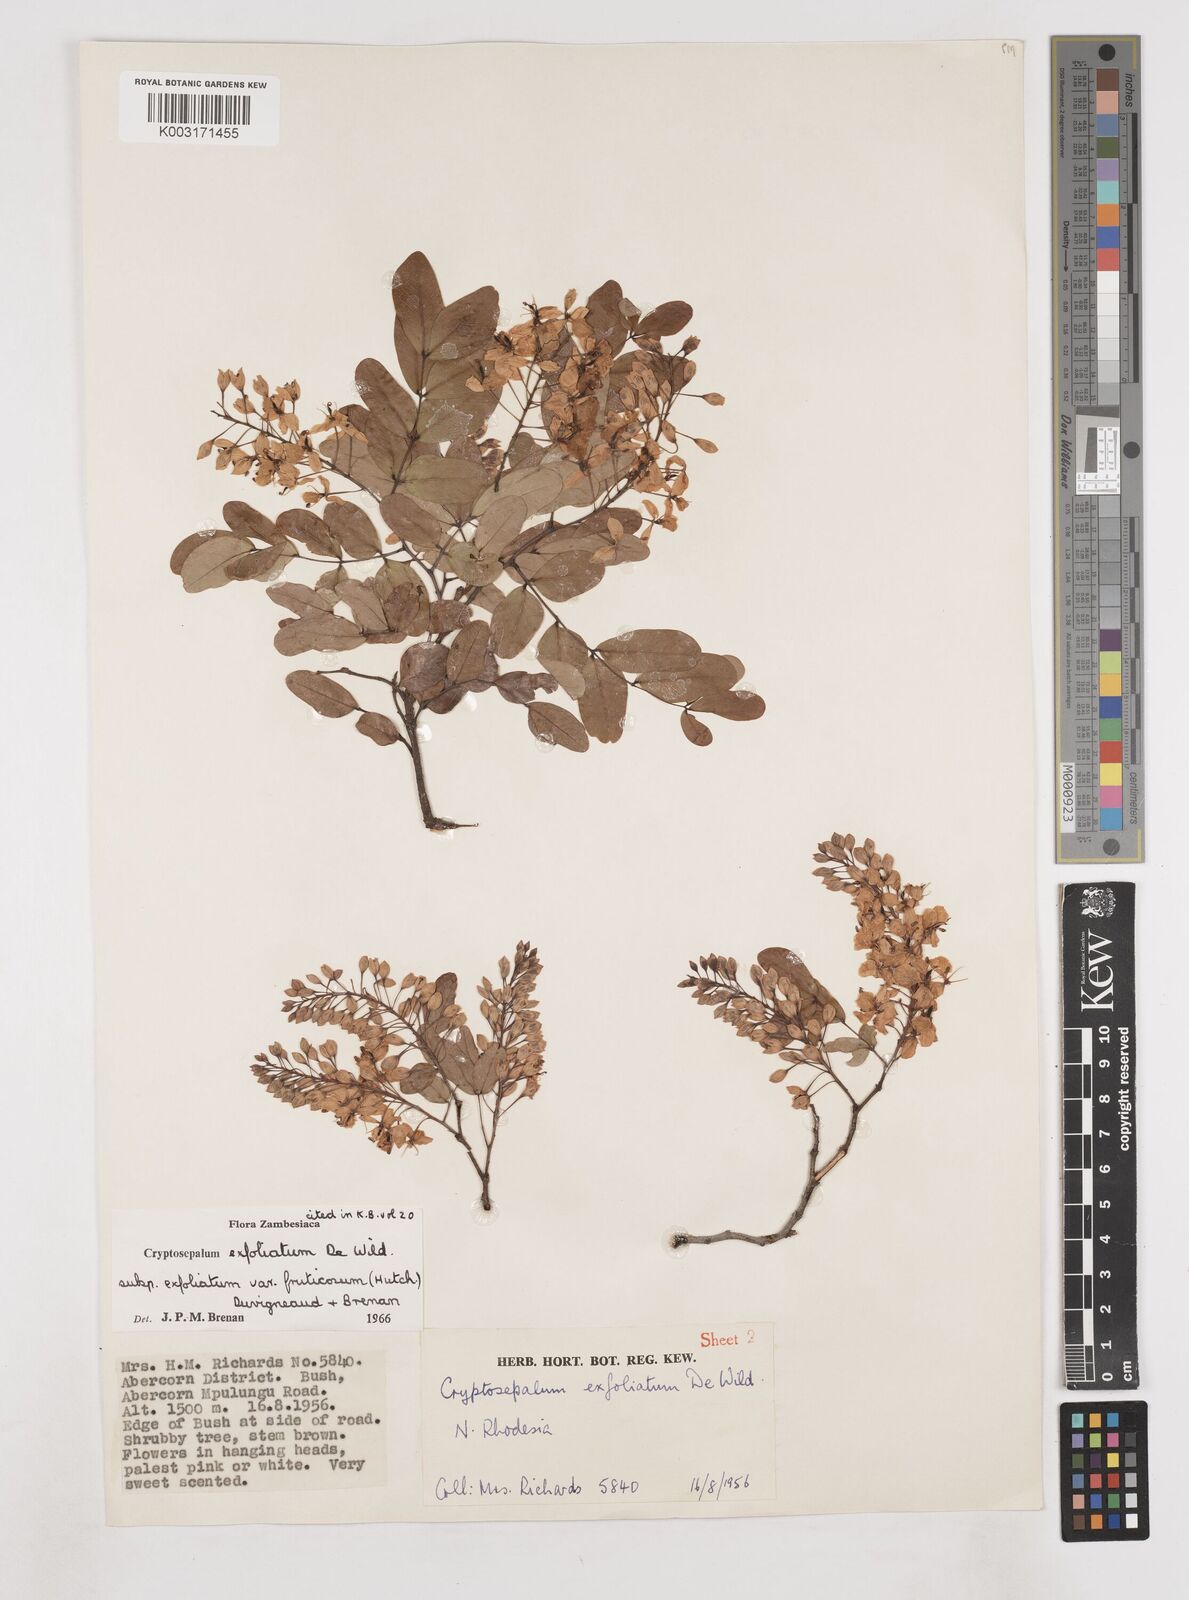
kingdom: Plantae
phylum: Tracheophyta
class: Magnoliopsida
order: Fabales
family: Fabaceae
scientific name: Fabaceae
